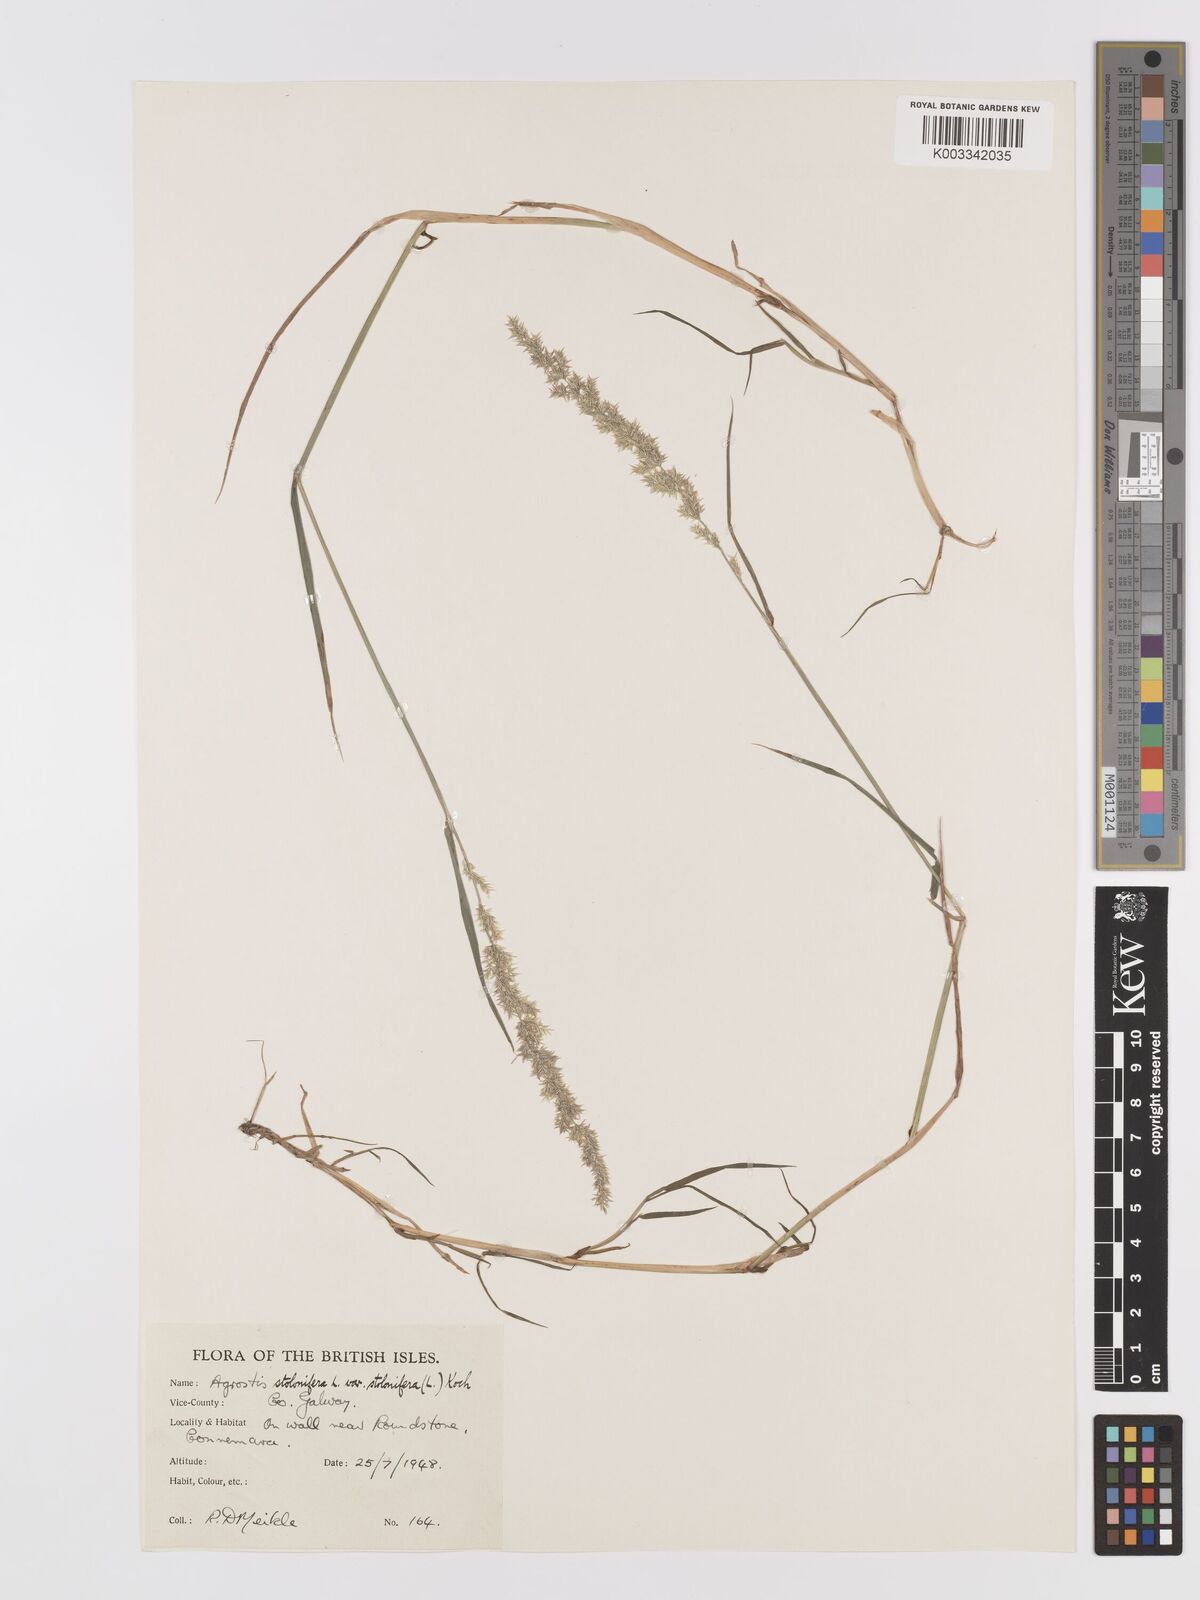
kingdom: Plantae
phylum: Tracheophyta
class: Liliopsida
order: Poales
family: Poaceae
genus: Agrostis
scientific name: Agrostis stolonifera
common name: Creeping bentgrass
